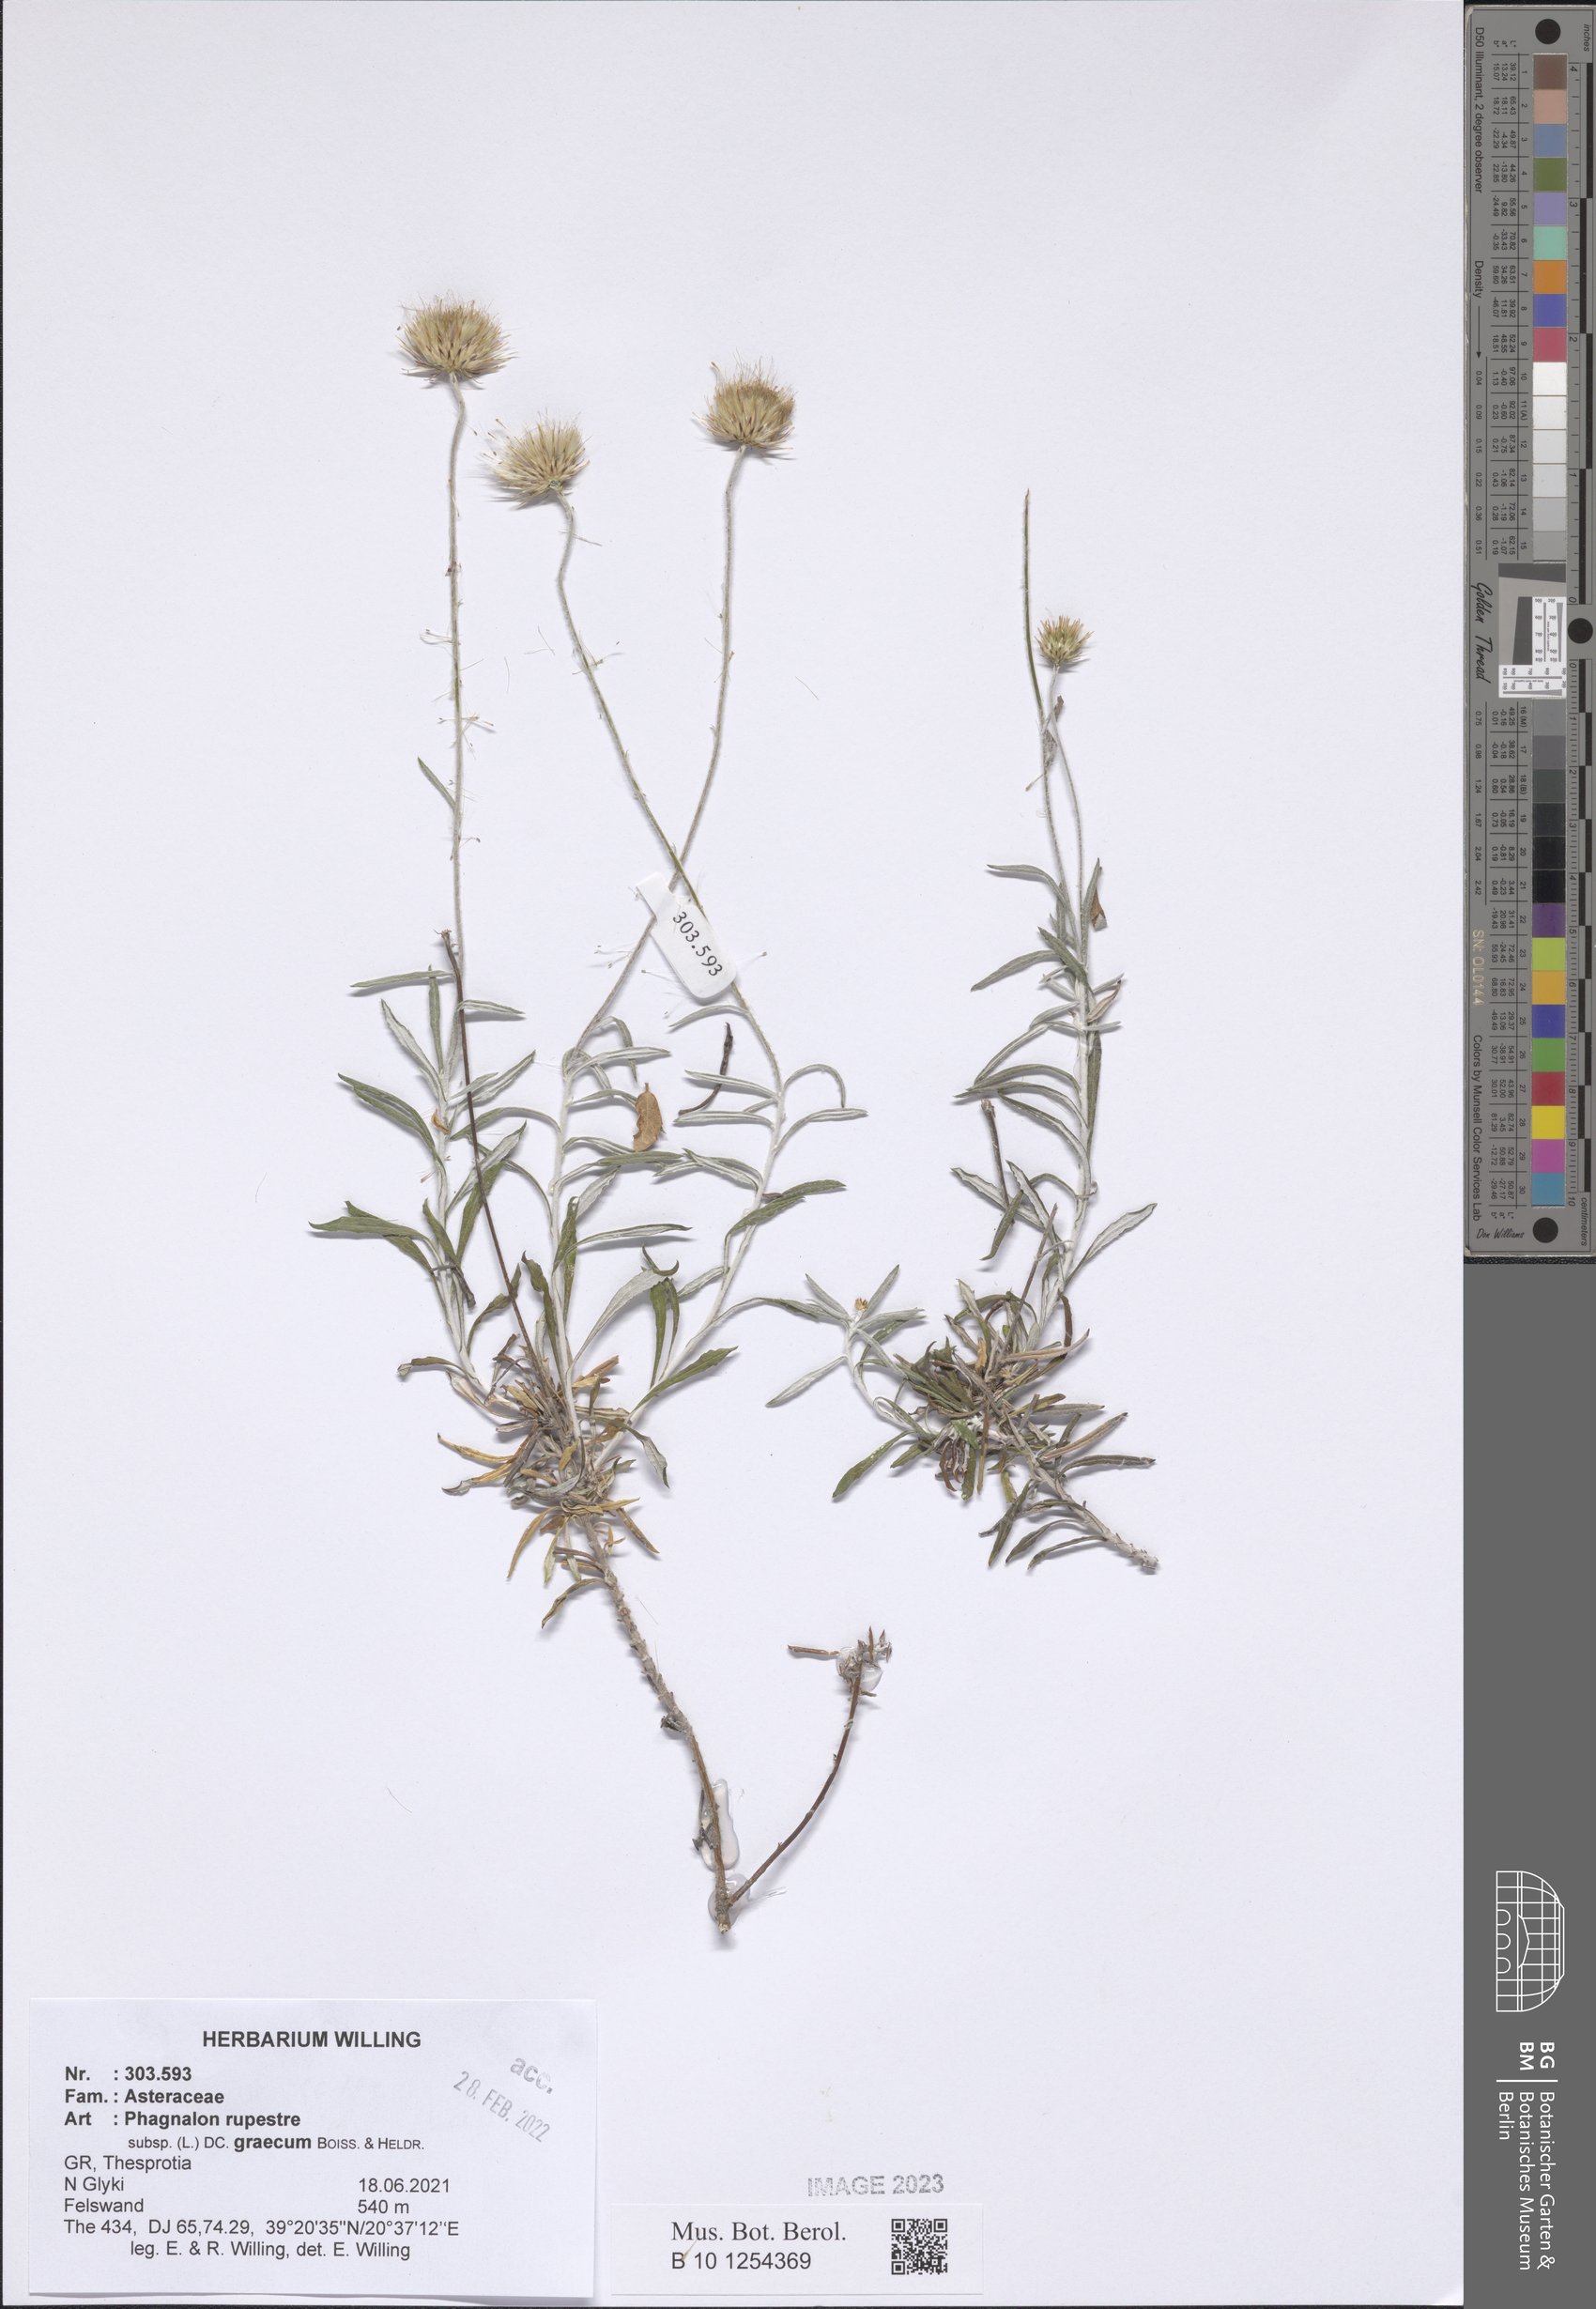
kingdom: Plantae
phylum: Tracheophyta
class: Magnoliopsida
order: Asterales
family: Asteraceae
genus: Phagnalon
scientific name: Phagnalon graecum
